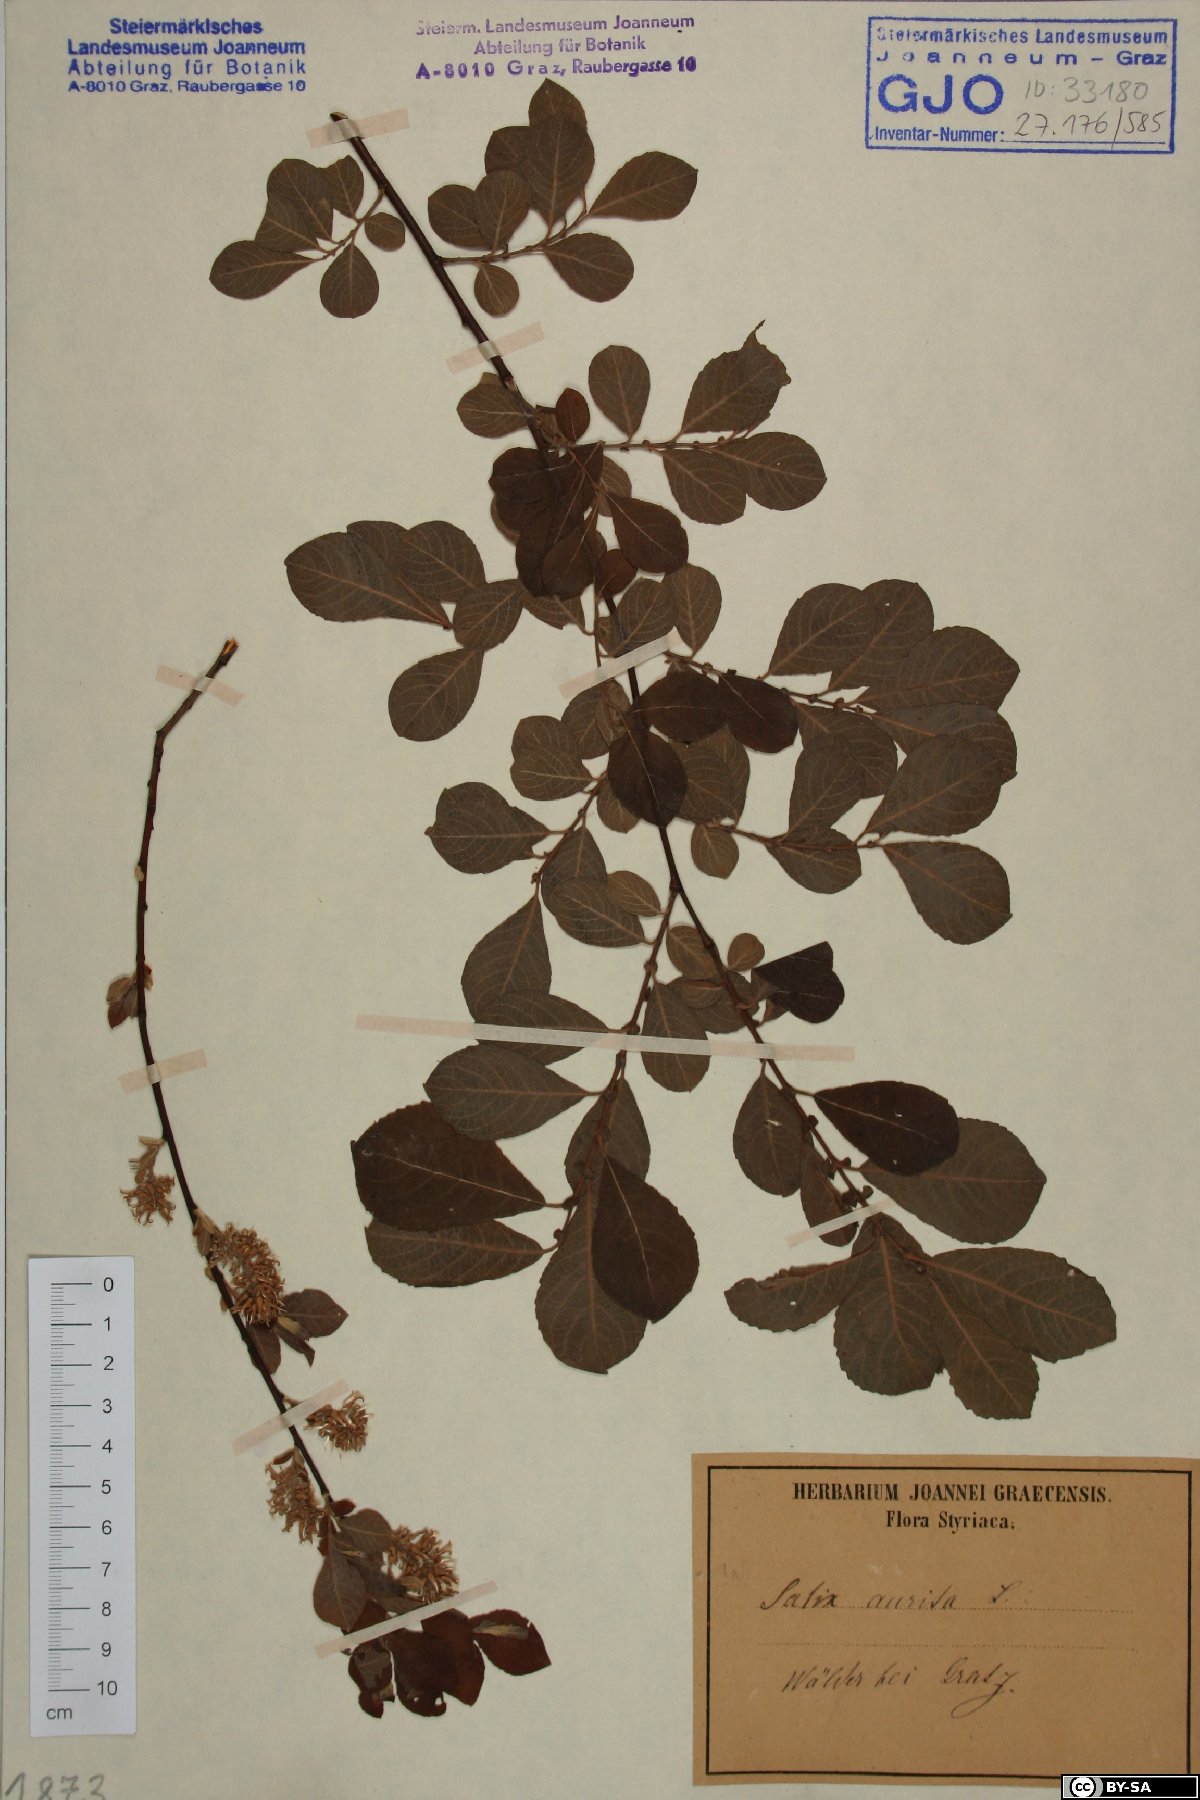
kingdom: Plantae
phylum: Tracheophyta
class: Magnoliopsida
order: Malpighiales
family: Salicaceae
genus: Salix
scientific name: Salix aurita
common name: Eared willow
